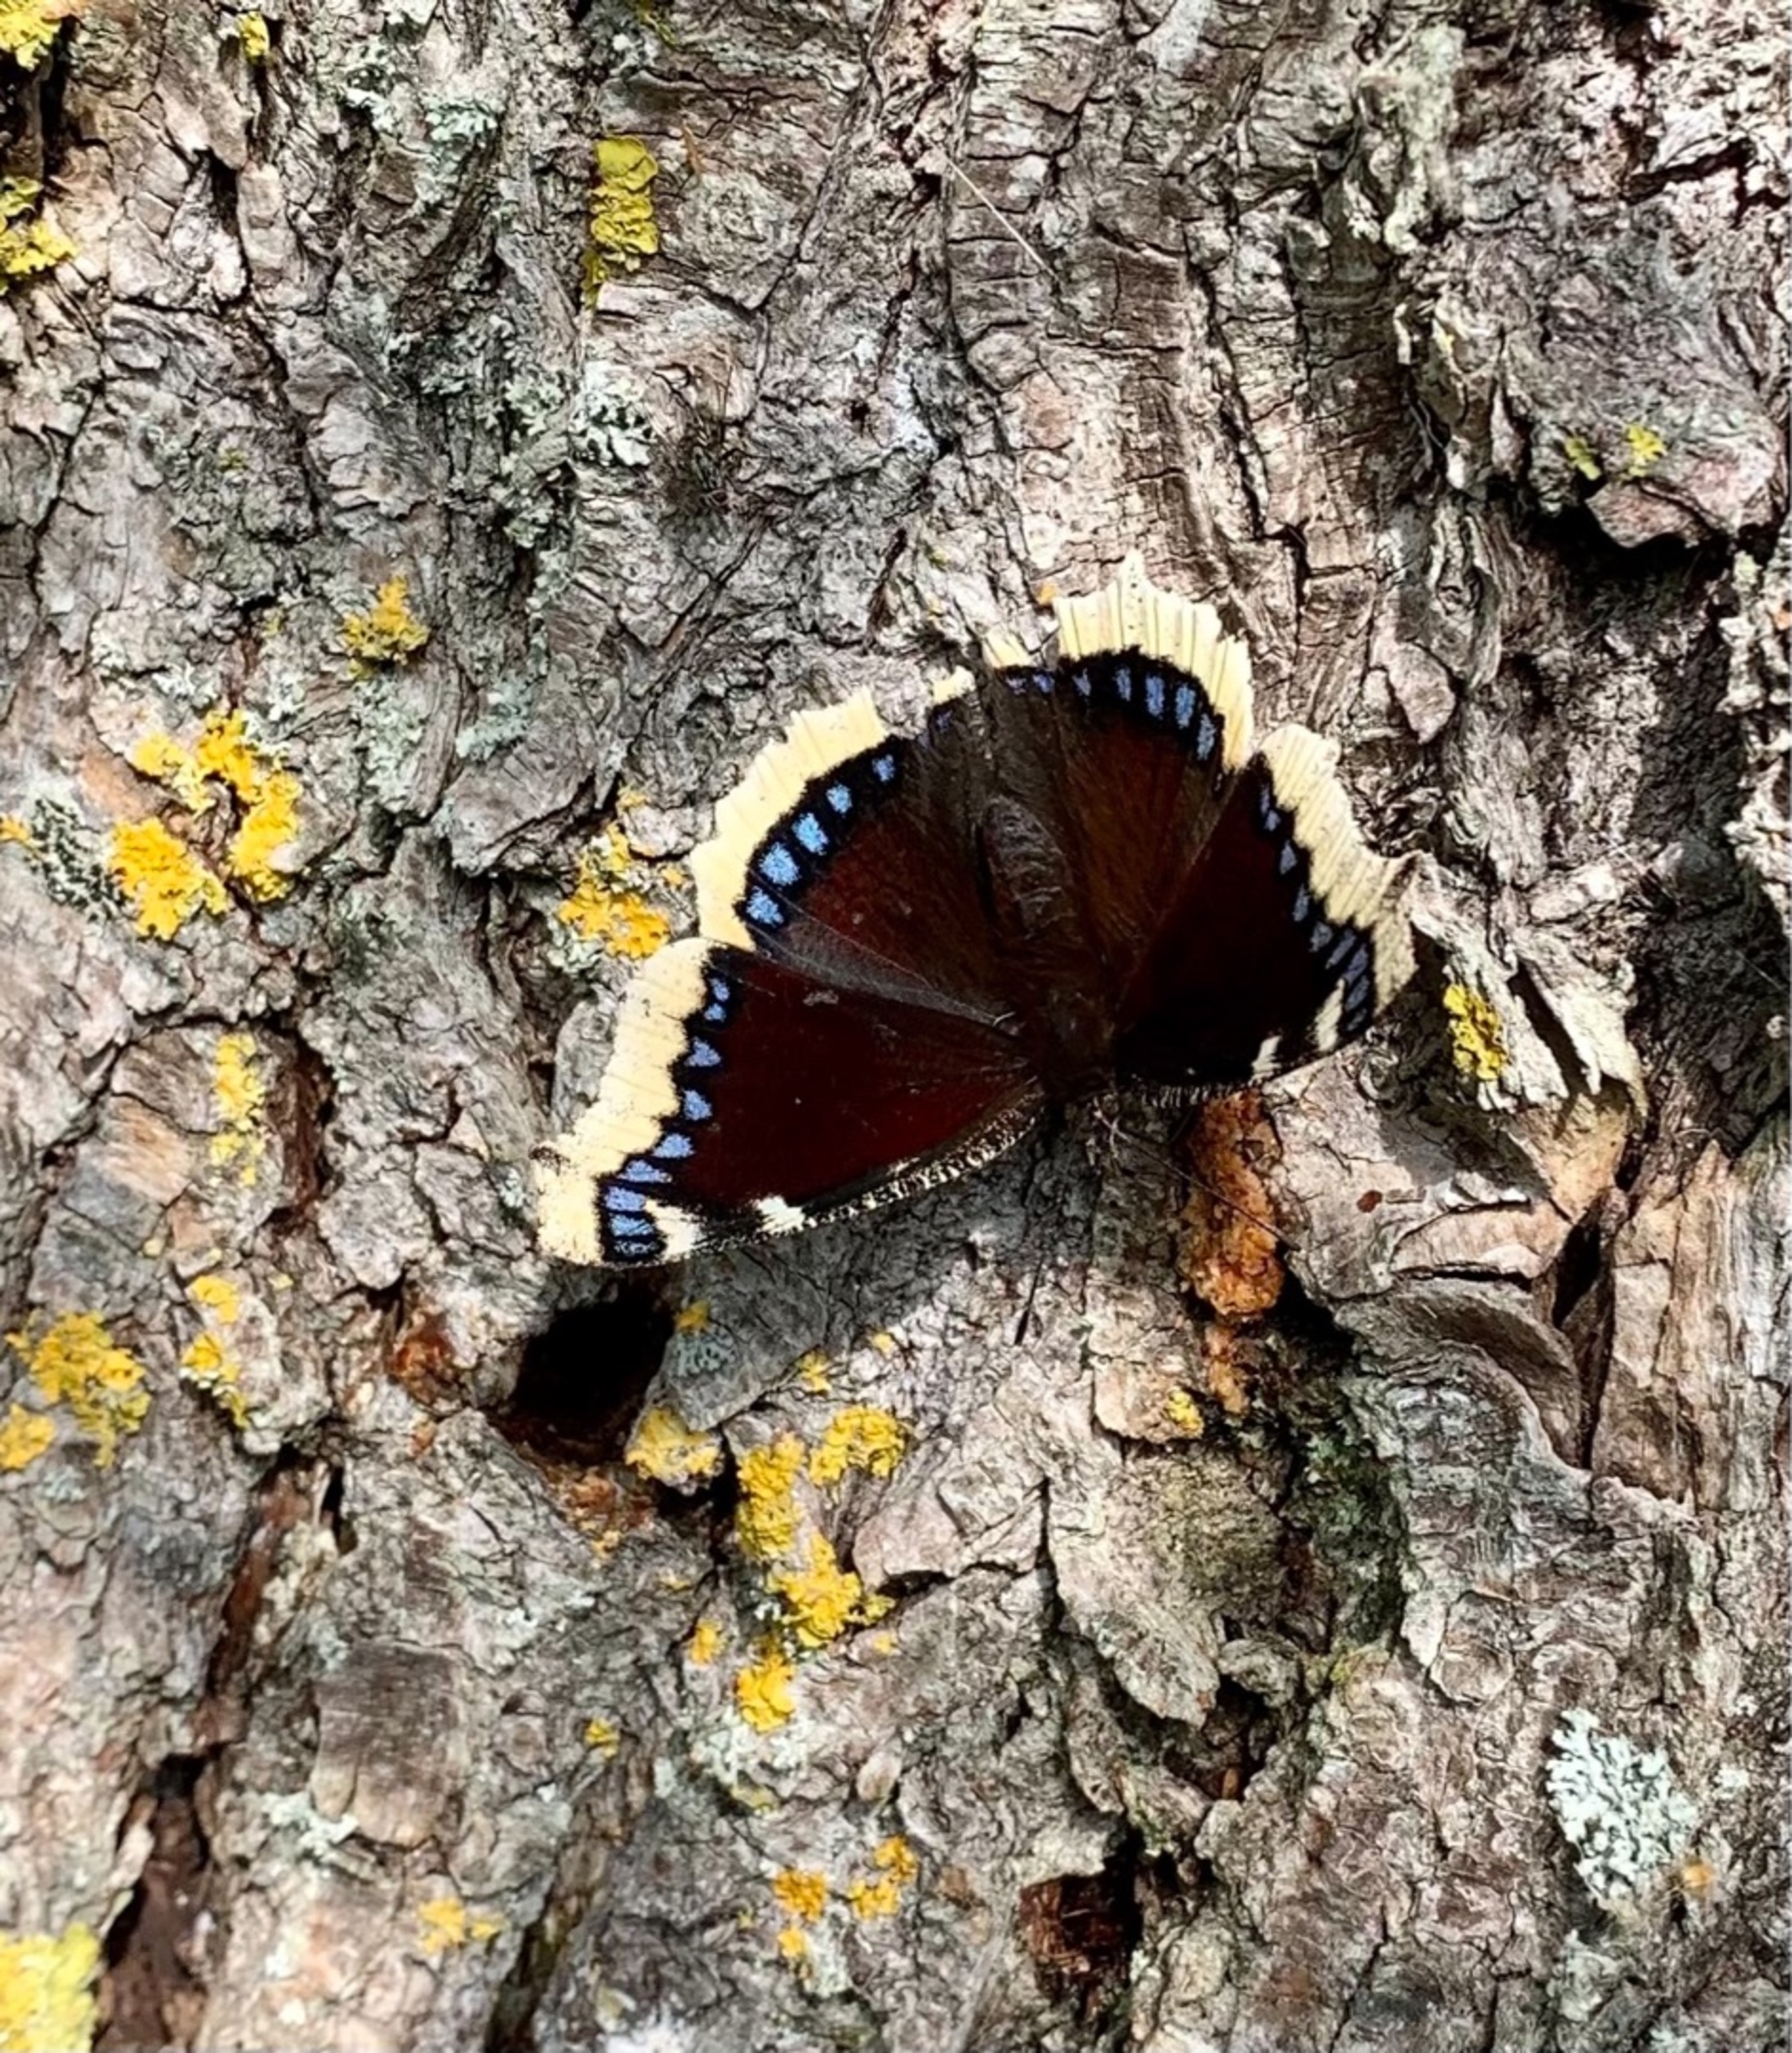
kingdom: Animalia
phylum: Arthropoda
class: Insecta
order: Lepidoptera
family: Nymphalidae
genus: Nymphalis
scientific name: Nymphalis antiopa
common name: Sørgekåbe
